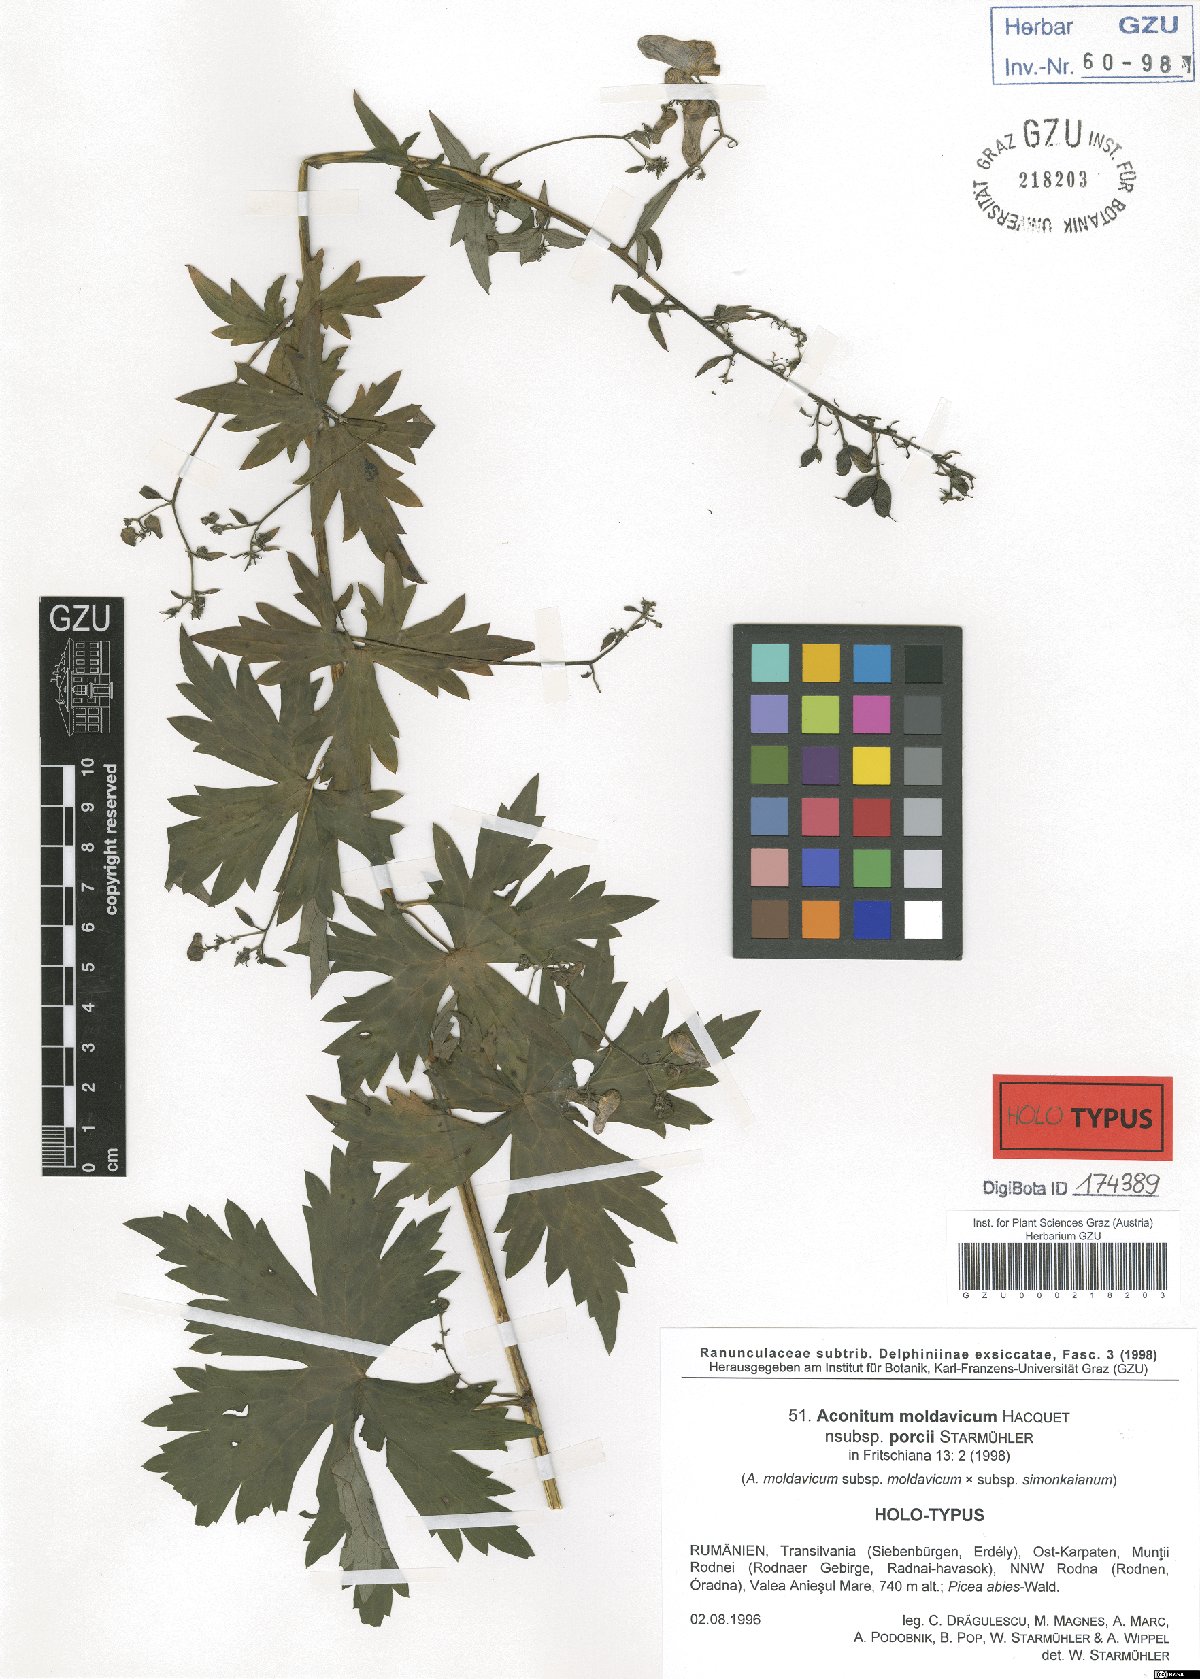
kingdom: Plantae
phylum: Tracheophyta
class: Magnoliopsida
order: Ranunculales
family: Ranunculaceae
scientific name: Ranunculaceae
